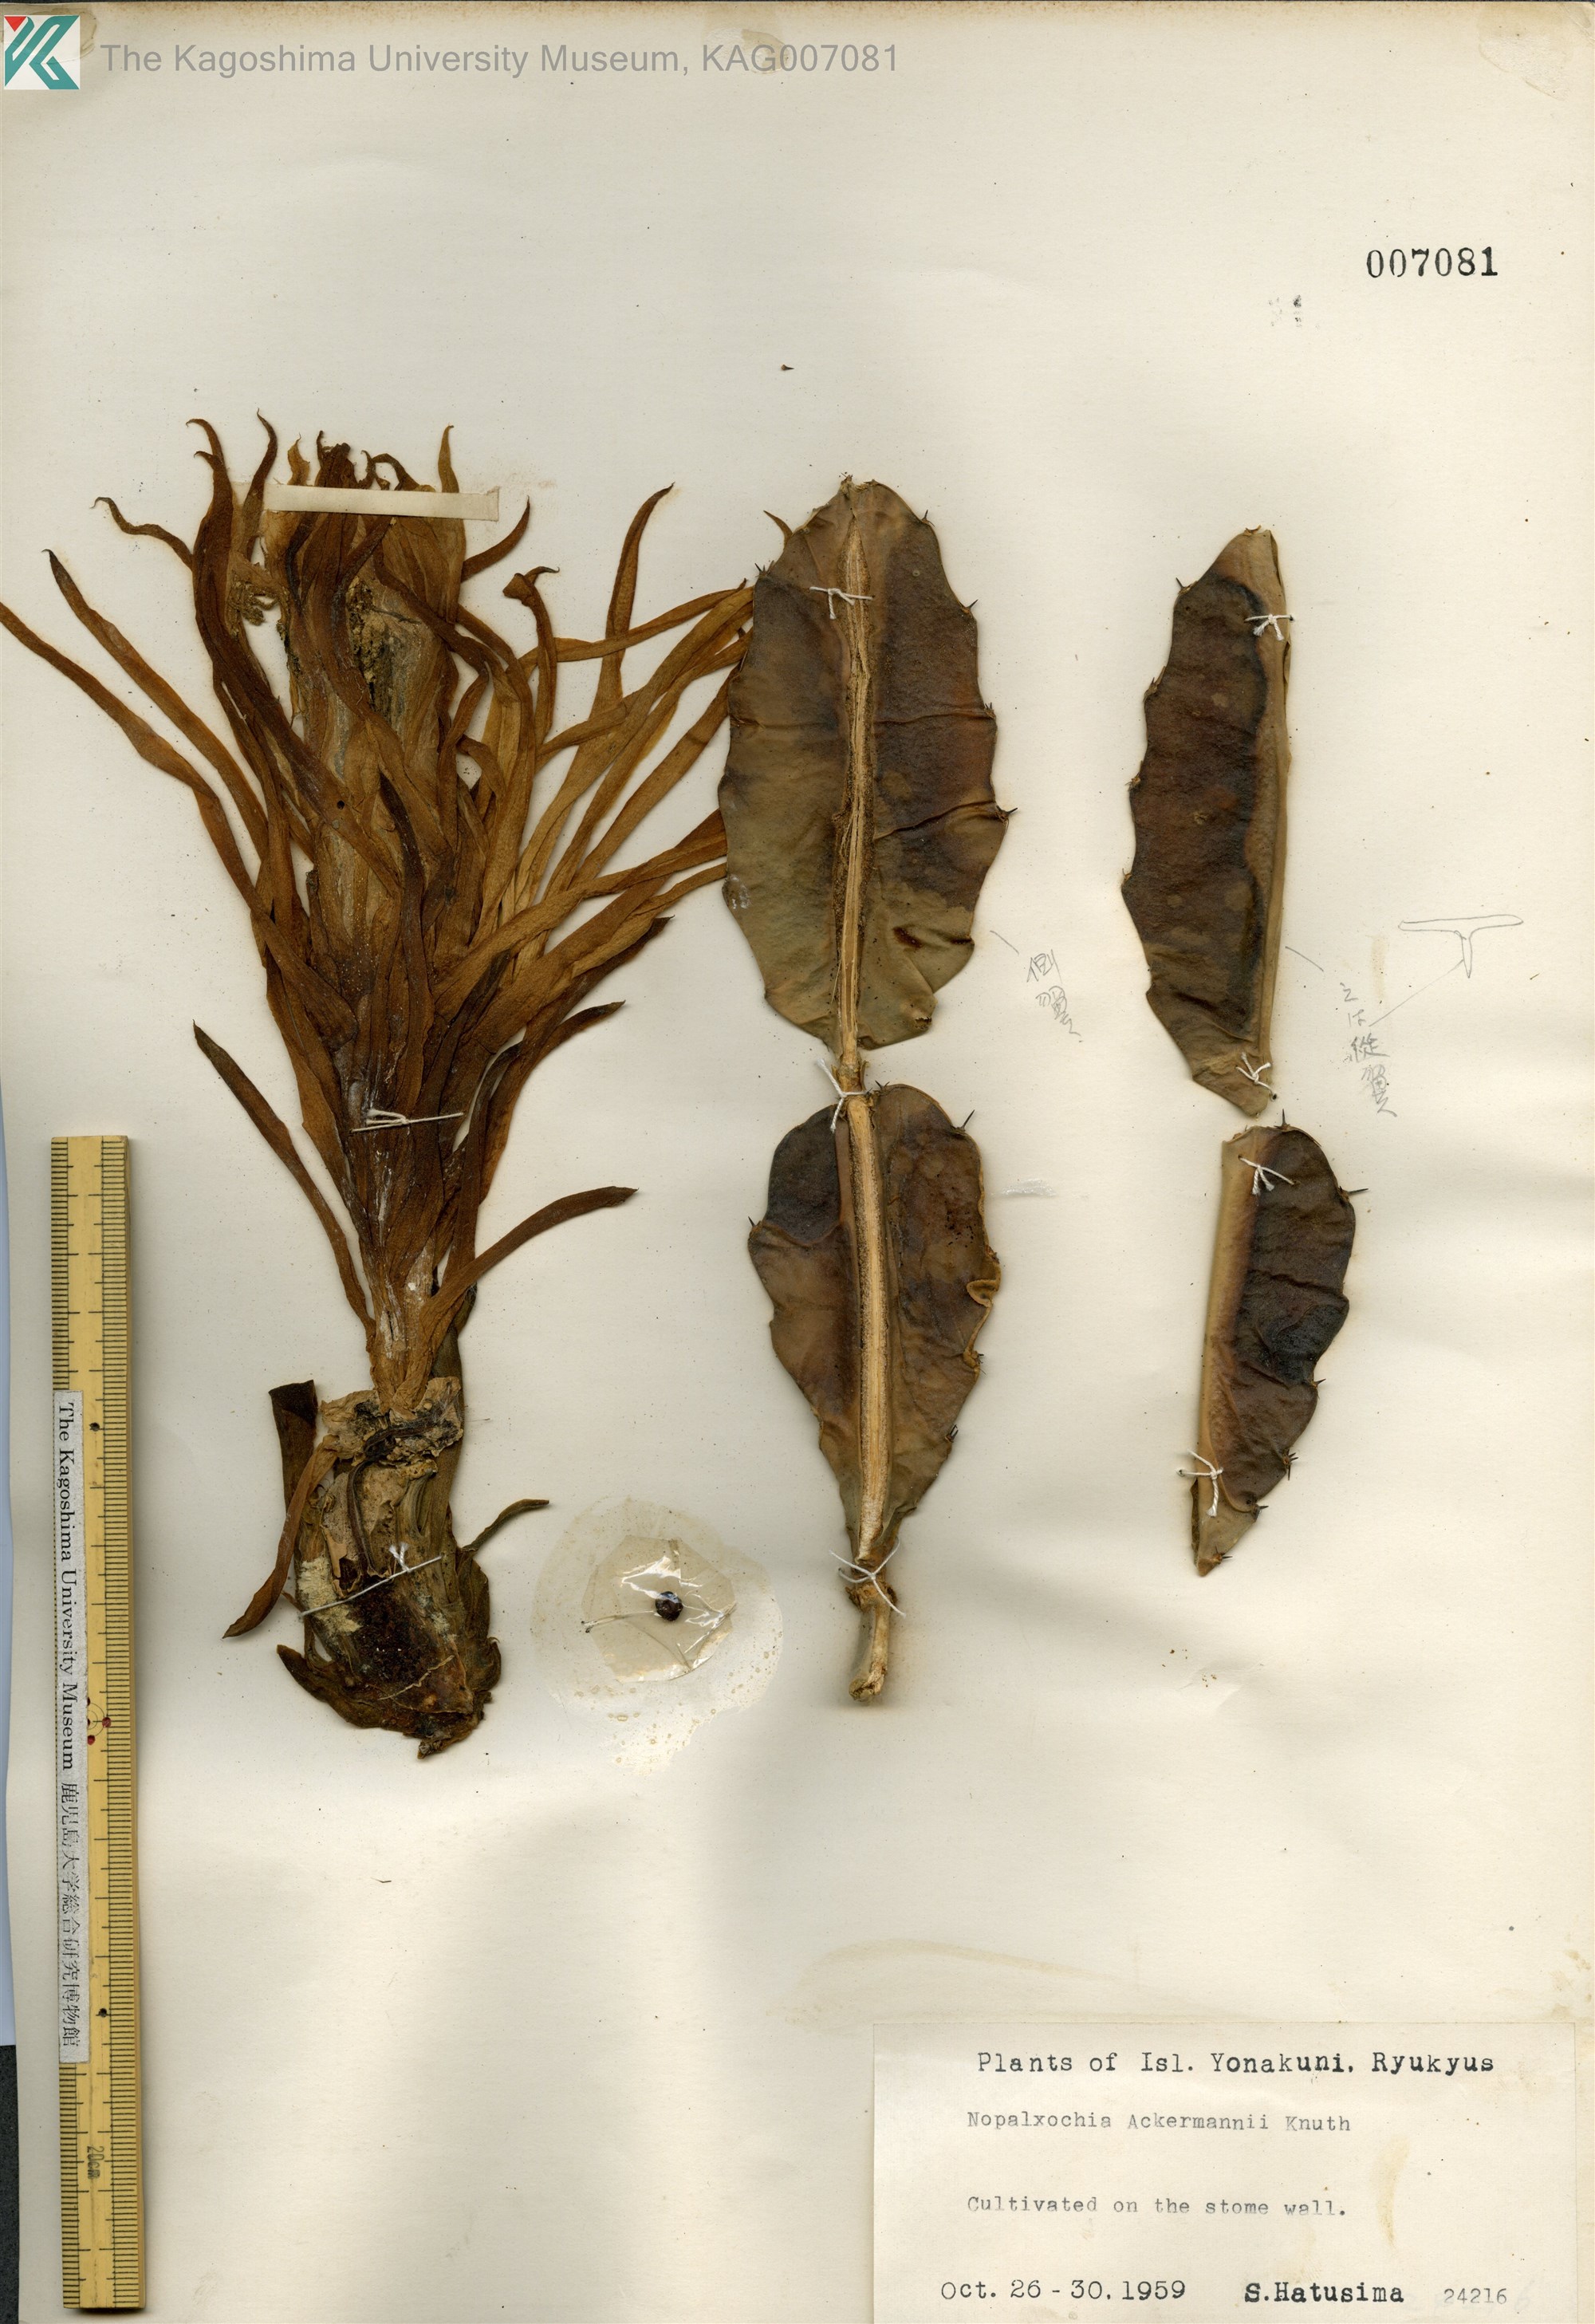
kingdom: Plantae
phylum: Tracheophyta
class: Magnoliopsida
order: Caryophyllales
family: Cactaceae
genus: Disocactus
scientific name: Disocactus ackermannii
